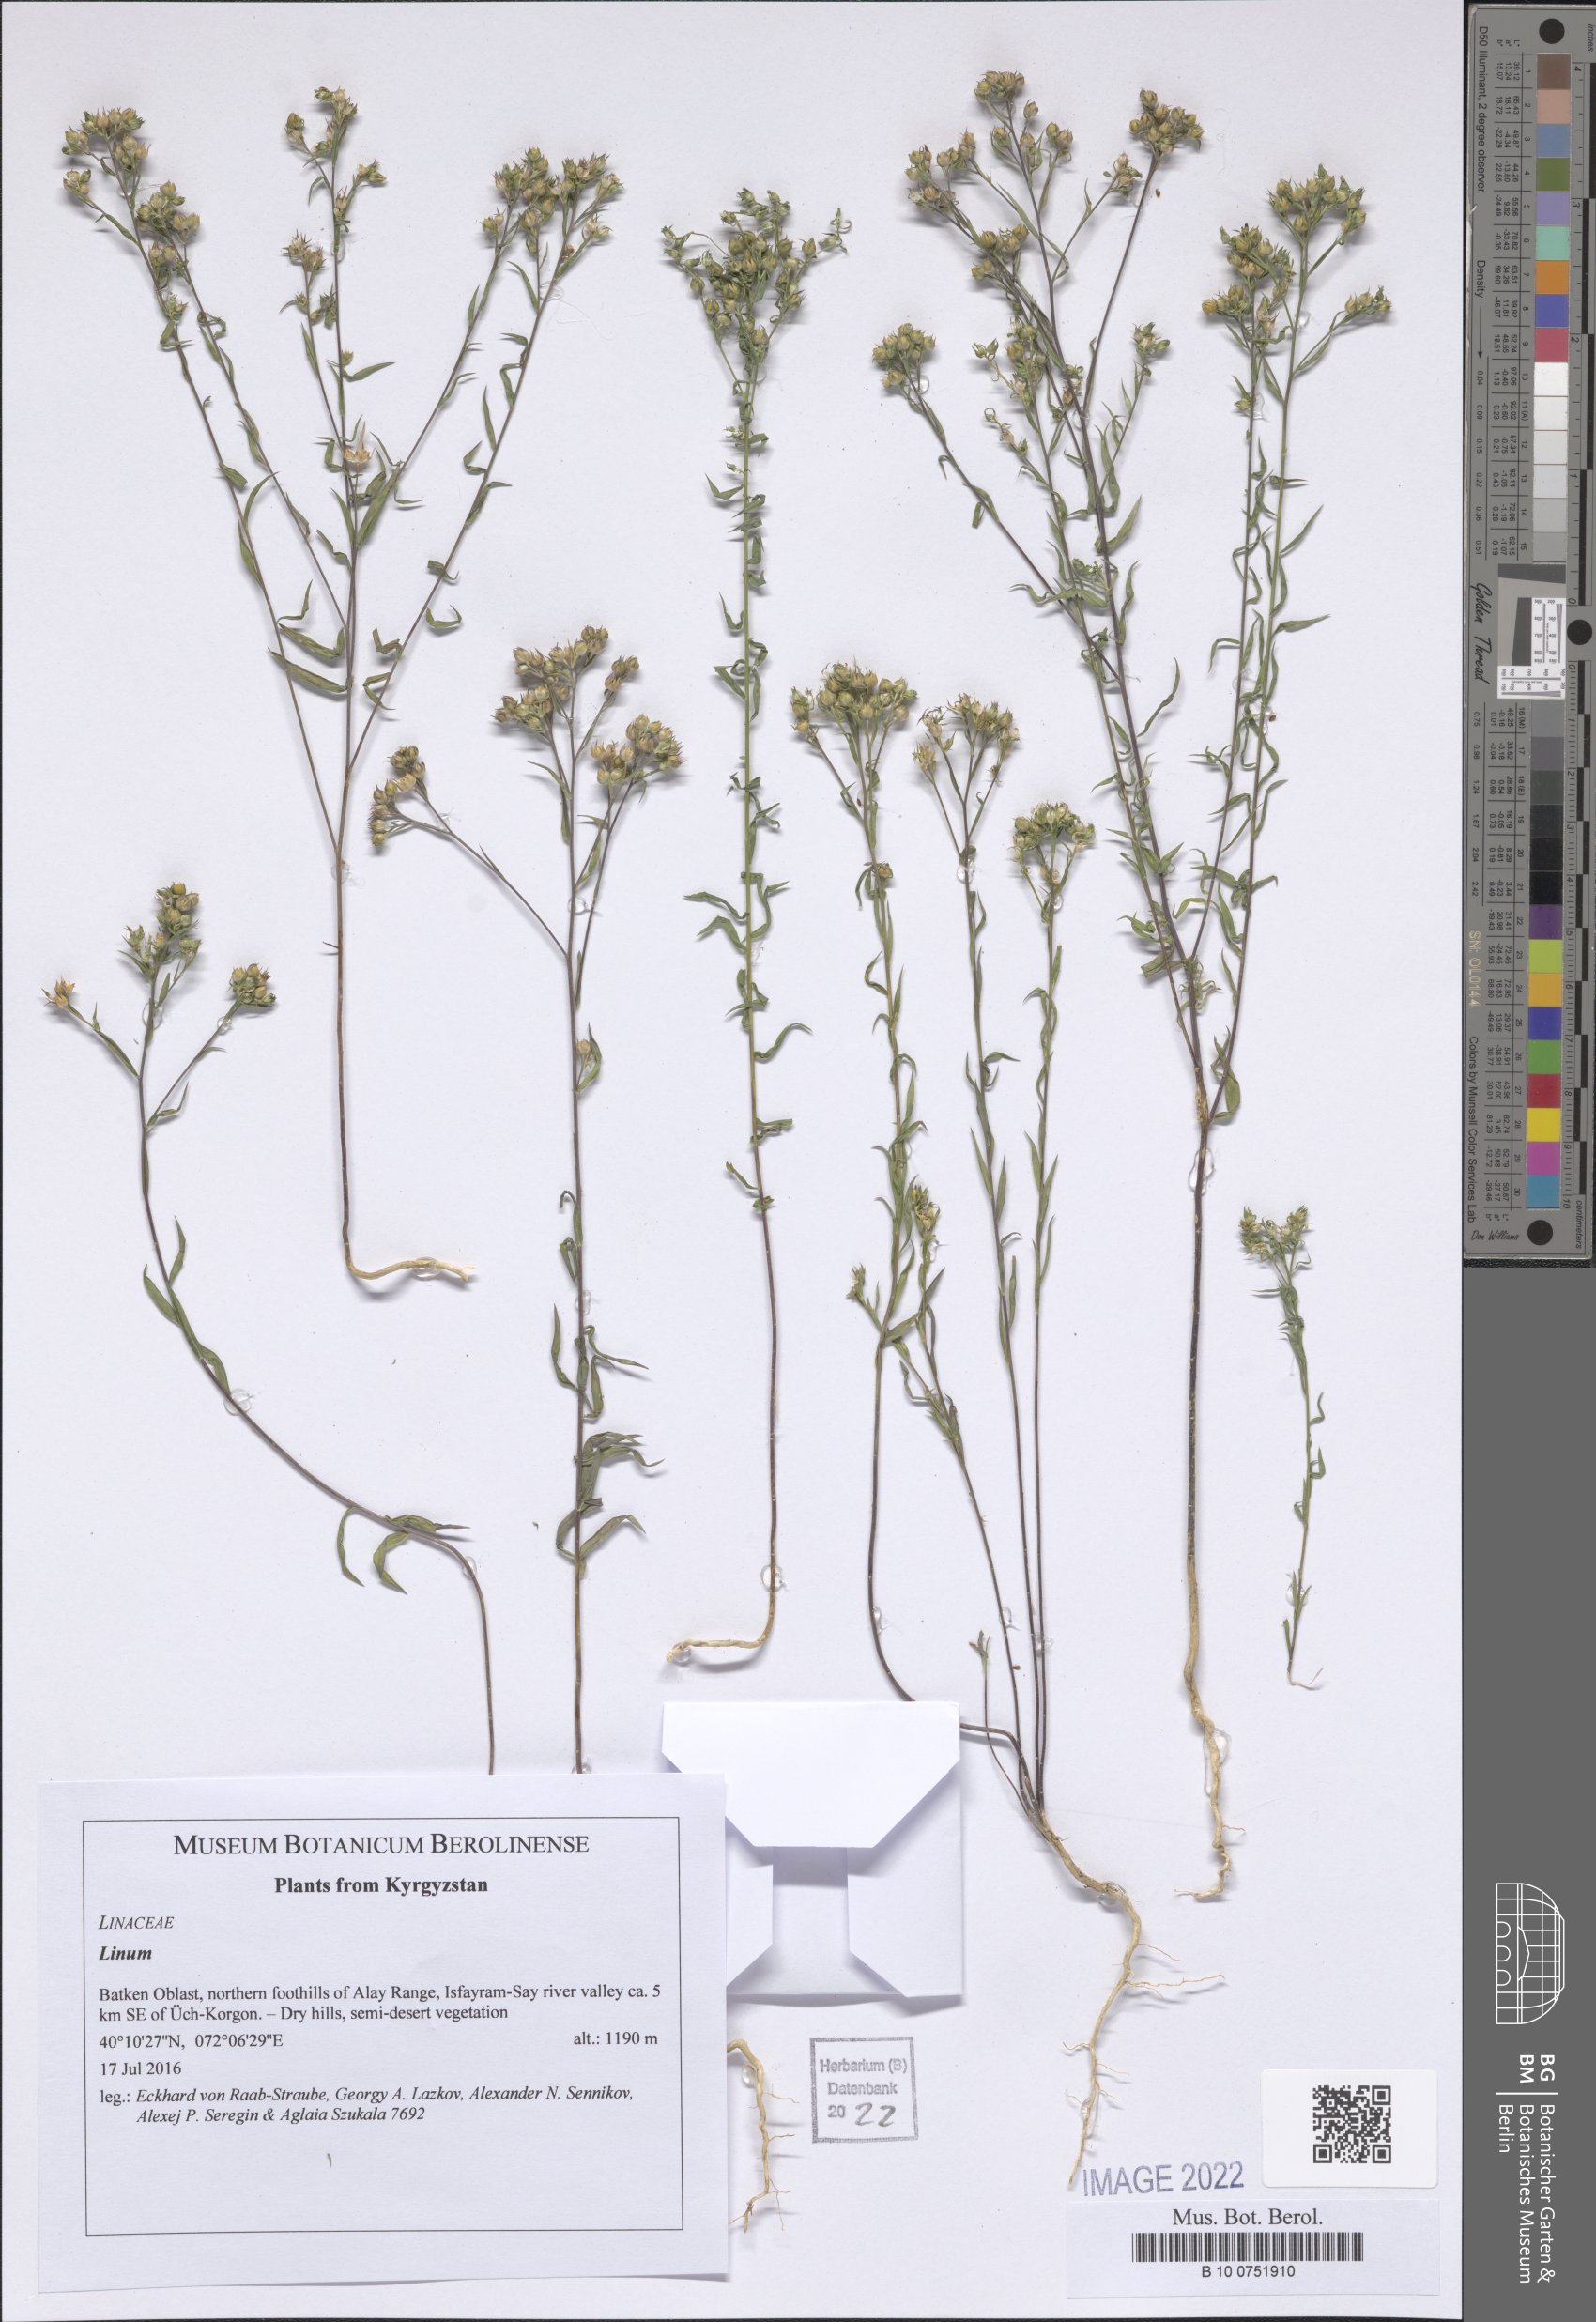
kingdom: Plantae
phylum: Tracheophyta
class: Magnoliopsida
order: Malpighiales
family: Linaceae
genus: Linum
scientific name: Linum
